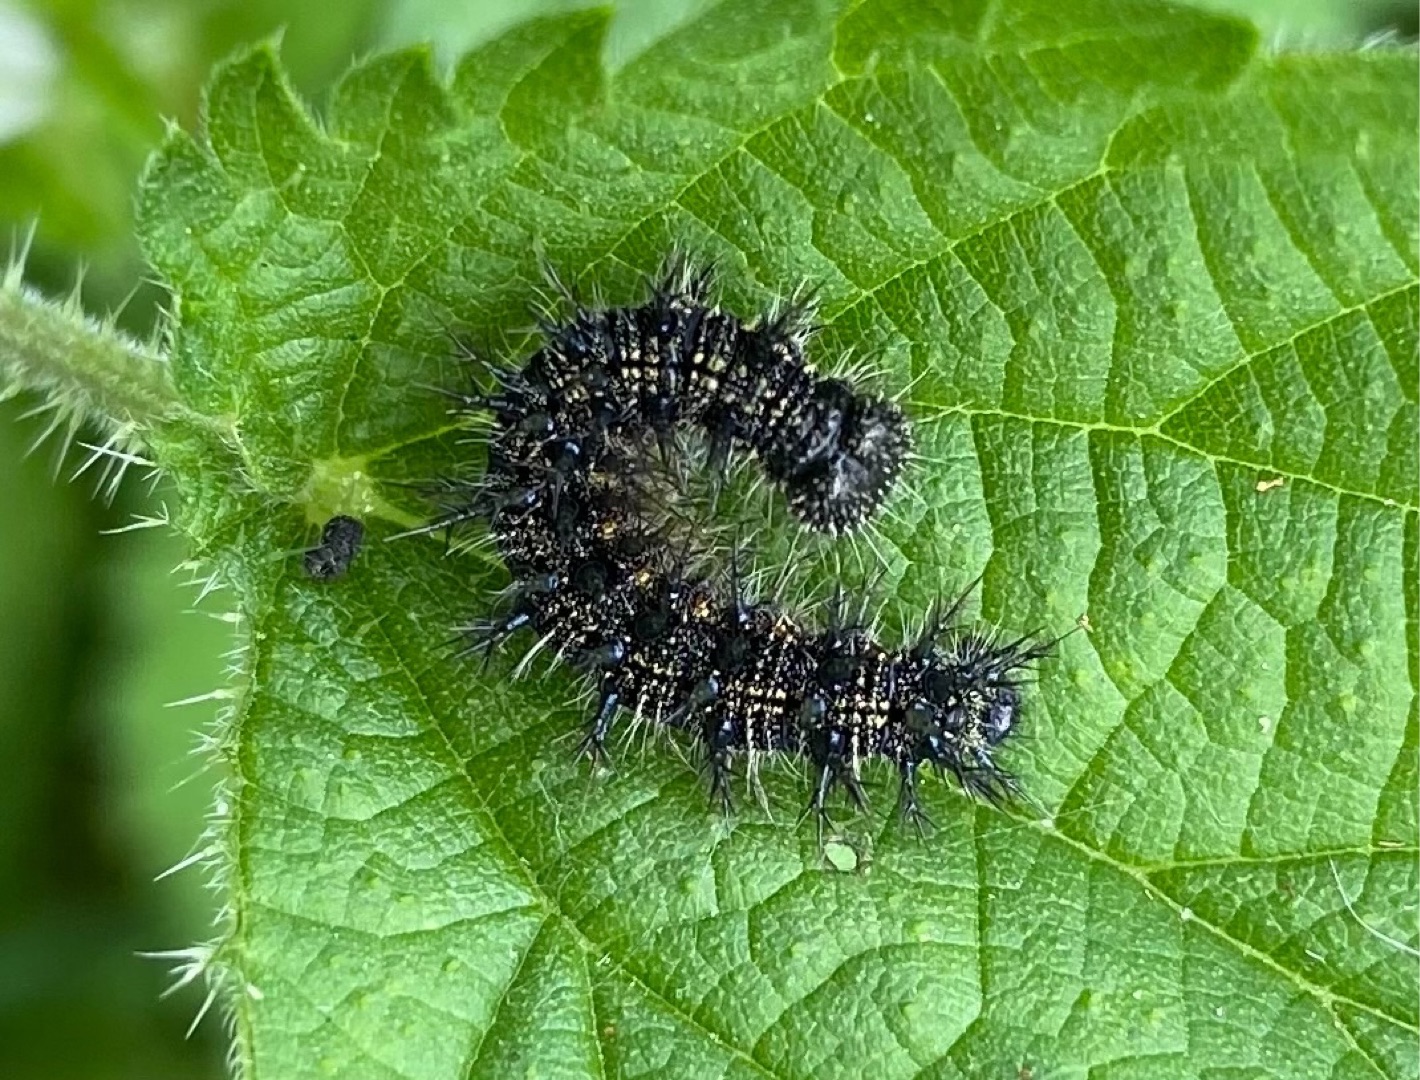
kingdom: Animalia
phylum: Arthropoda
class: Insecta
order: Lepidoptera
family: Nymphalidae
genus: Aglais
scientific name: Aglais urticae
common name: Nældens takvinge
